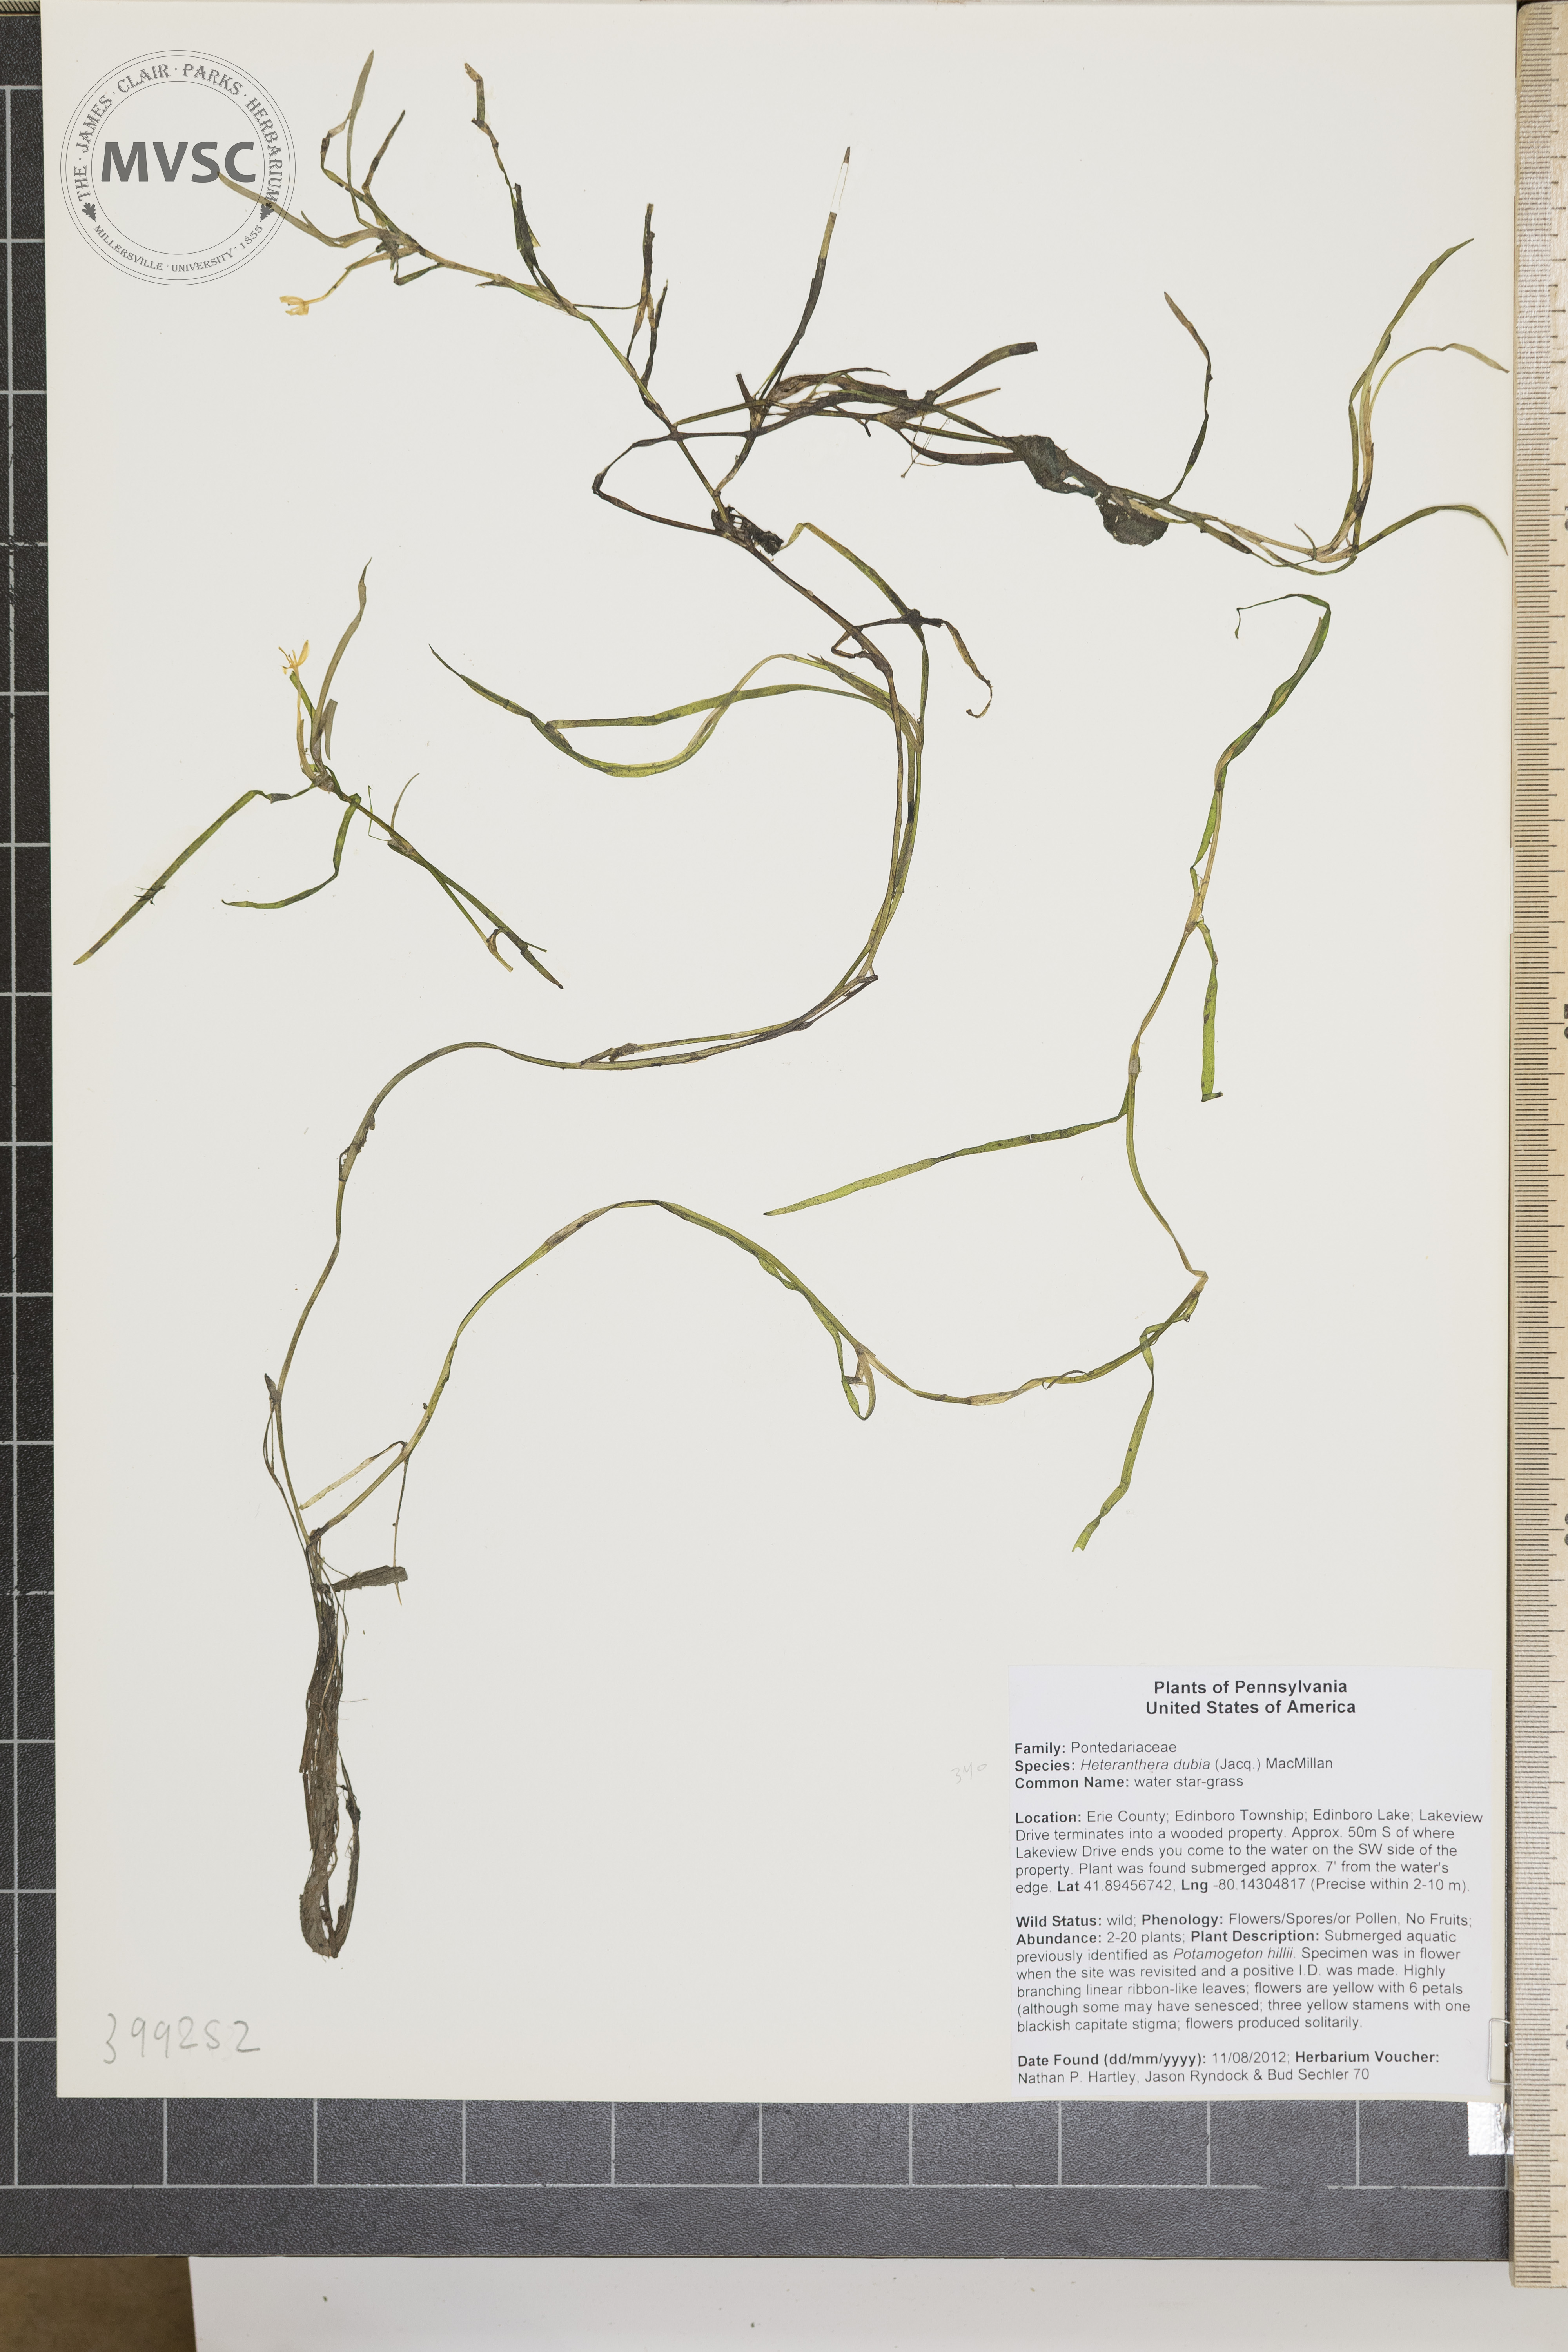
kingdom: Plantae
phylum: Tracheophyta
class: Liliopsida
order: Commelinales
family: Pontederiaceae
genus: Heteranthera
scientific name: Heteranthera dubia
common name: Water star-grass
